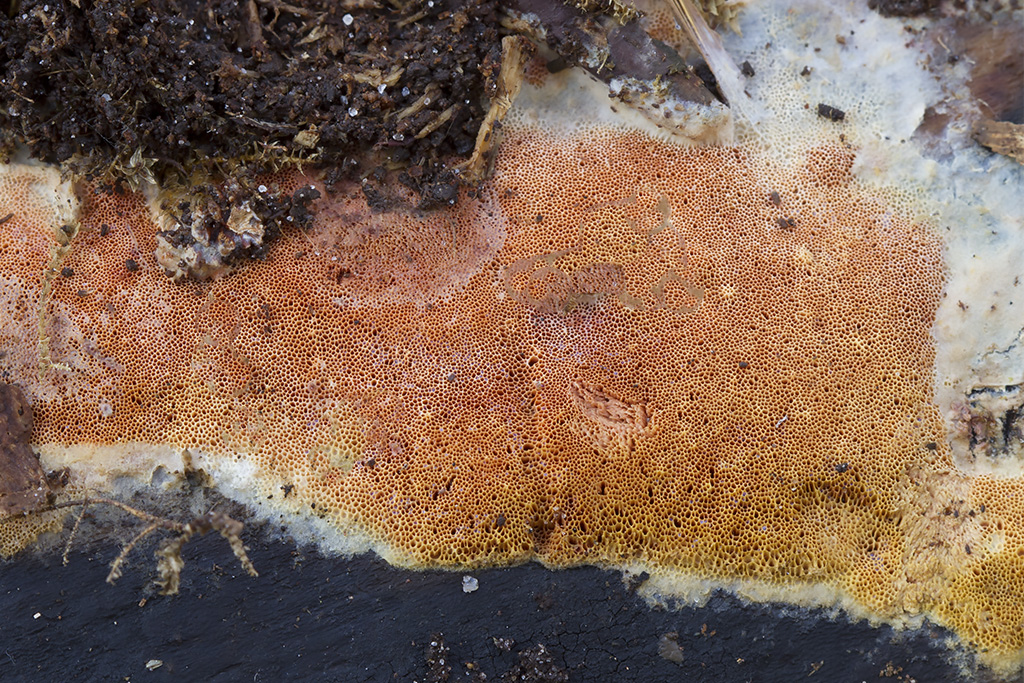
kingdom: Fungi
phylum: Basidiomycota
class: Agaricomycetes
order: Polyporales
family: Steccherinaceae
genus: Junghuhnia
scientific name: Junghuhnia nitida
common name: almindelig skønporesvamp
